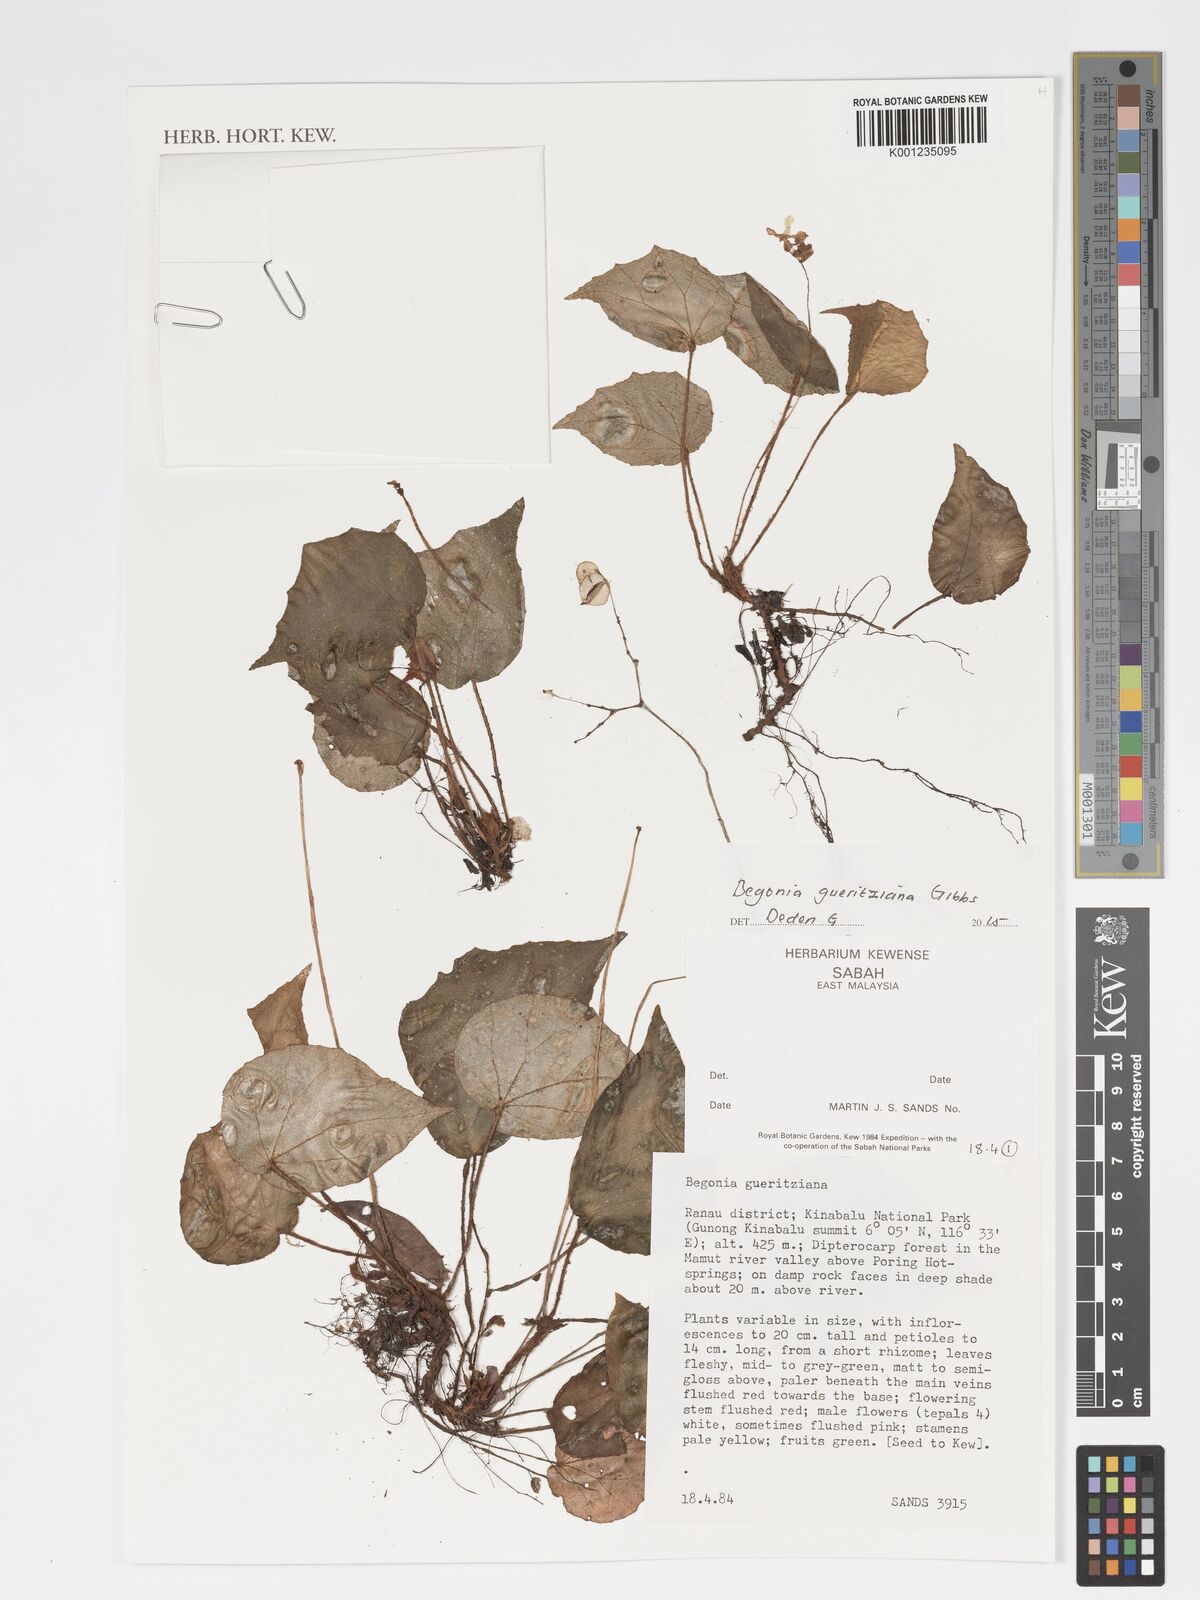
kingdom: Plantae
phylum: Tracheophyta
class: Magnoliopsida
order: Cucurbitales
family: Begoniaceae
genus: Begonia
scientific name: Begonia gueritziana
